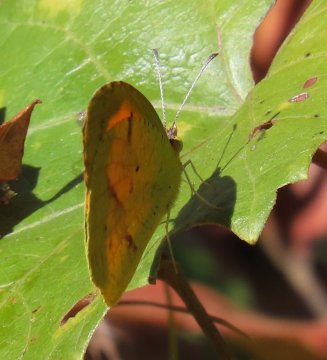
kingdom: Animalia
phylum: Arthropoda
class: Insecta
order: Lepidoptera
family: Pieridae
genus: Abaeis
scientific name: Abaeis nicippe
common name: Sleepy Orange
